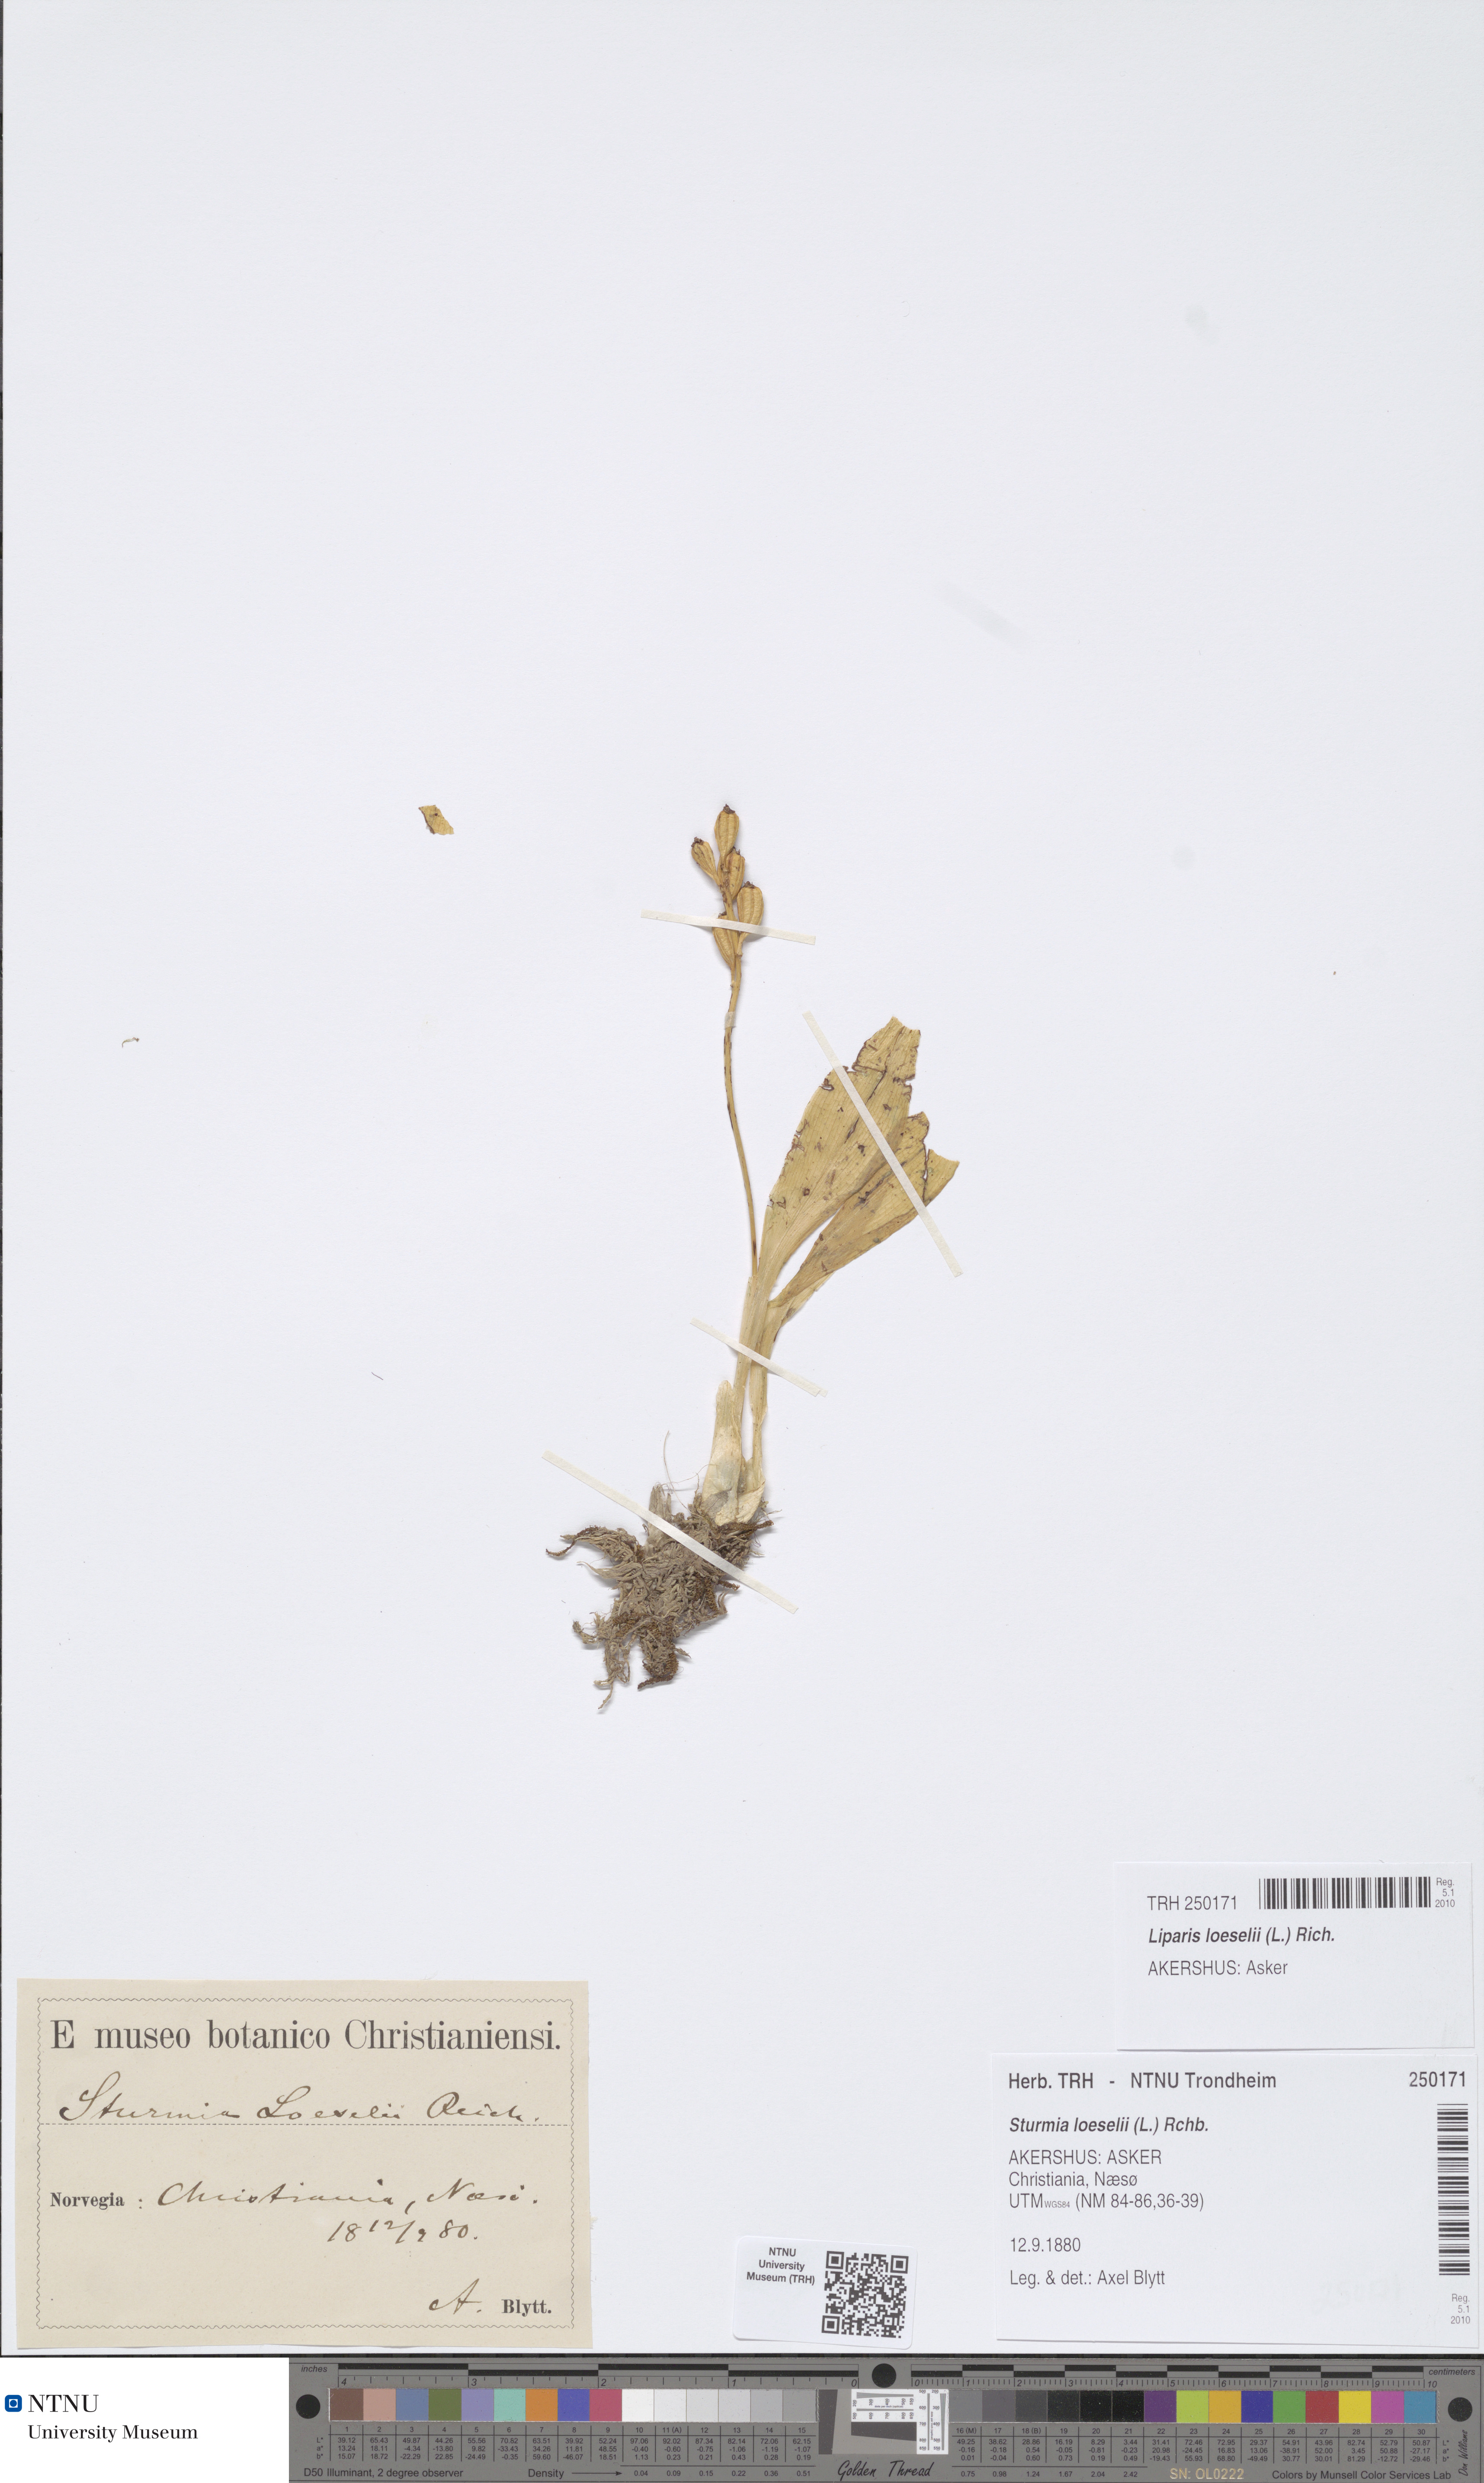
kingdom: Animalia
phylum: Arthropoda
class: Insecta
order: Coleoptera
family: Curculionidae
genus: Liparis
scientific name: Liparis loeselii
